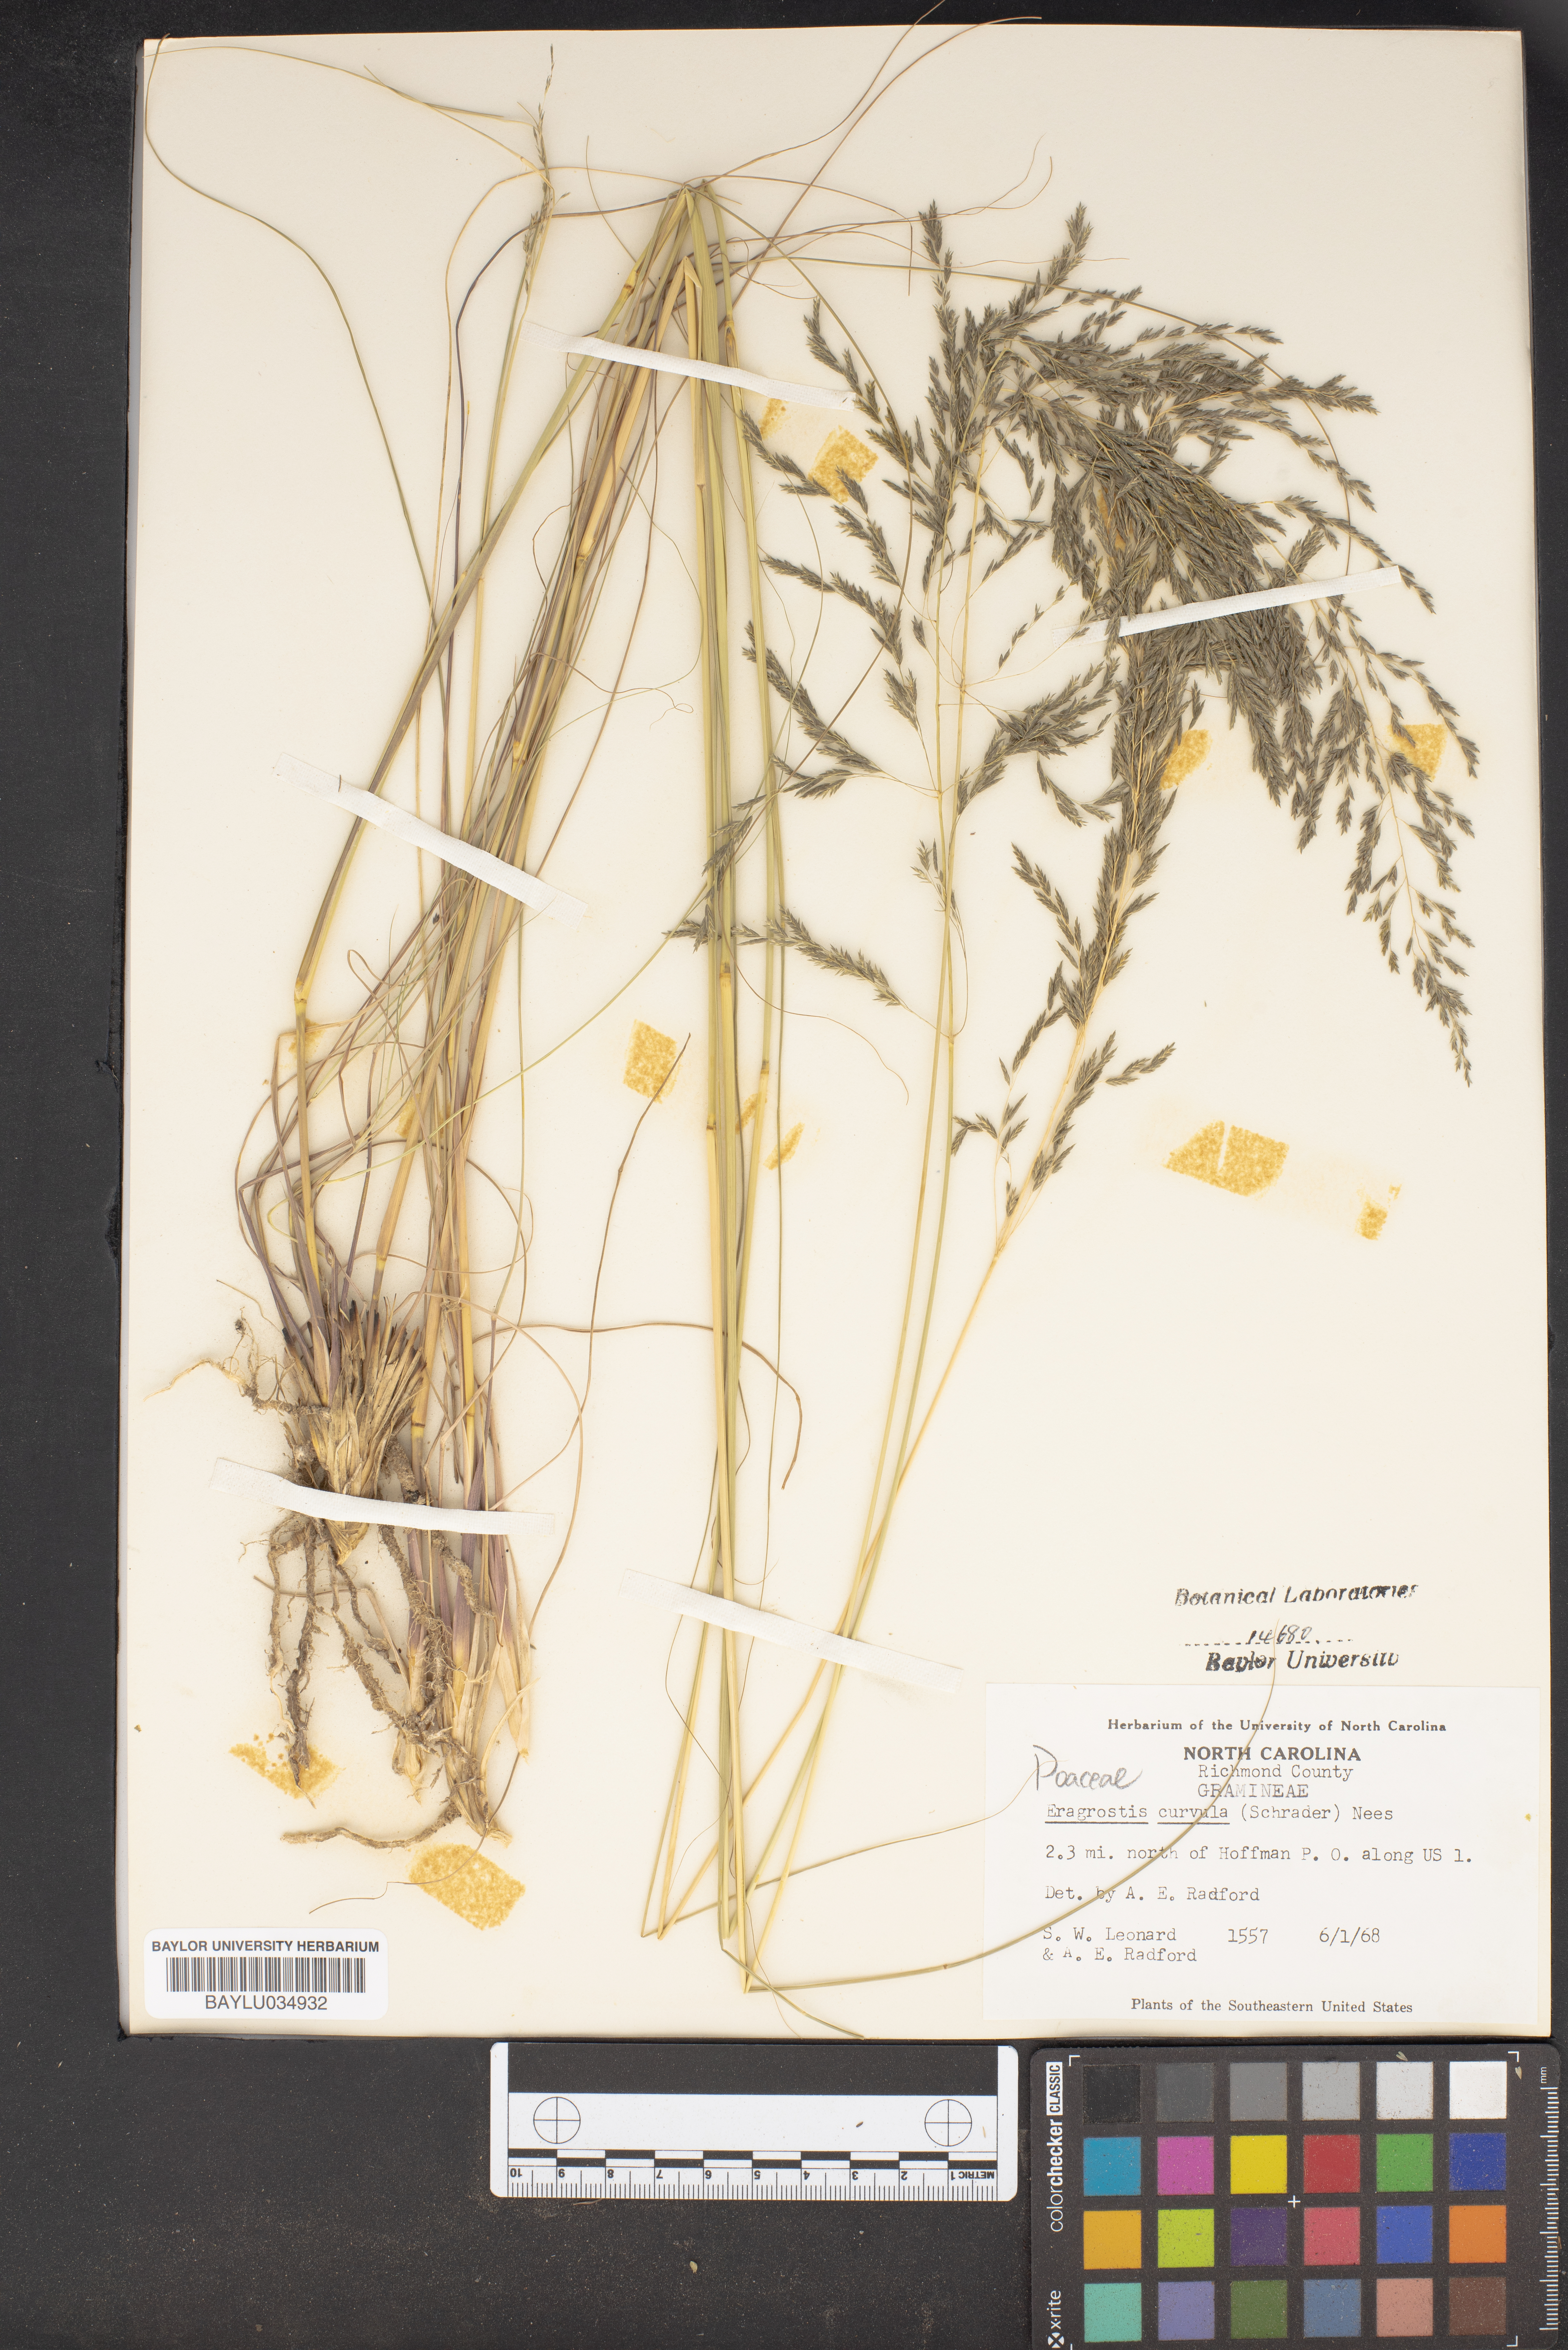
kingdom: Plantae
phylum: Tracheophyta
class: Liliopsida
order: Poales
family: Poaceae
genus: Eragrostis
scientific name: Eragrostis curvula
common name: African love-grass
